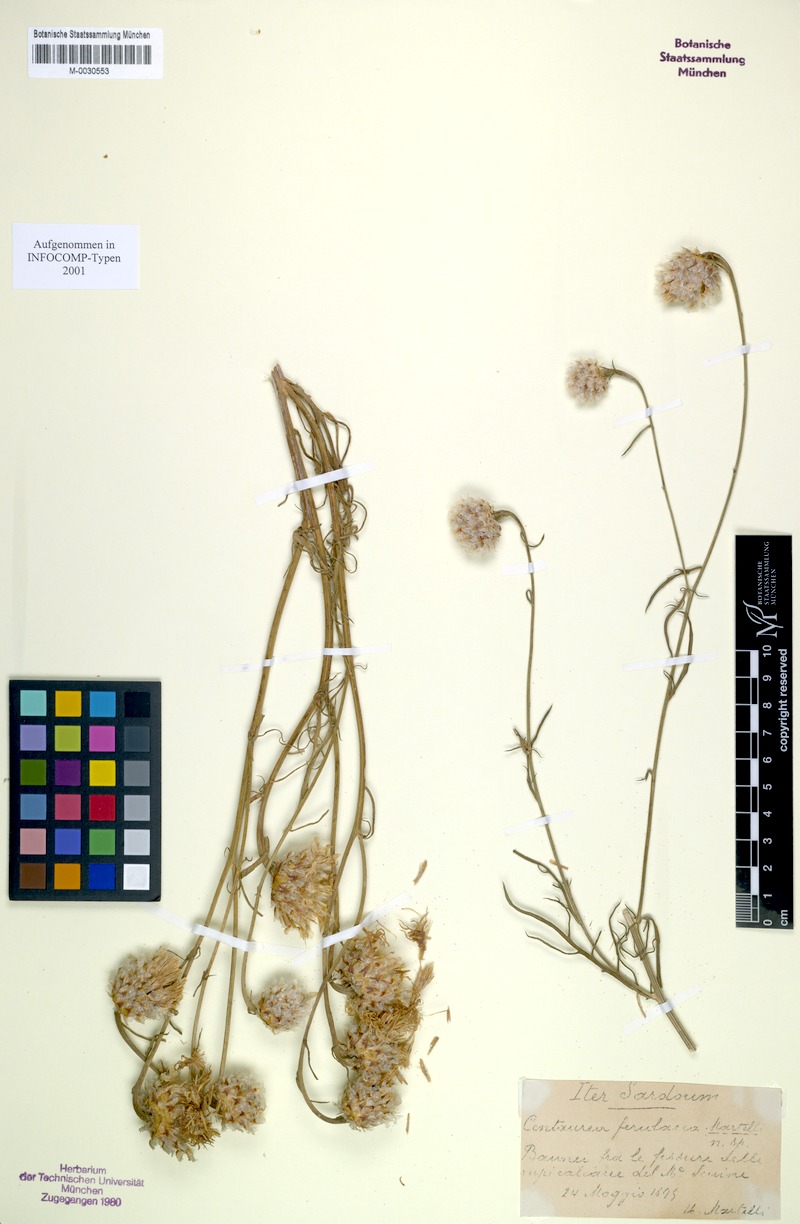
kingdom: Plantae
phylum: Tracheophyta
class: Magnoliopsida
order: Asterales
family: Asteraceae
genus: Centaurea
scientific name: Centaurea filiformis
